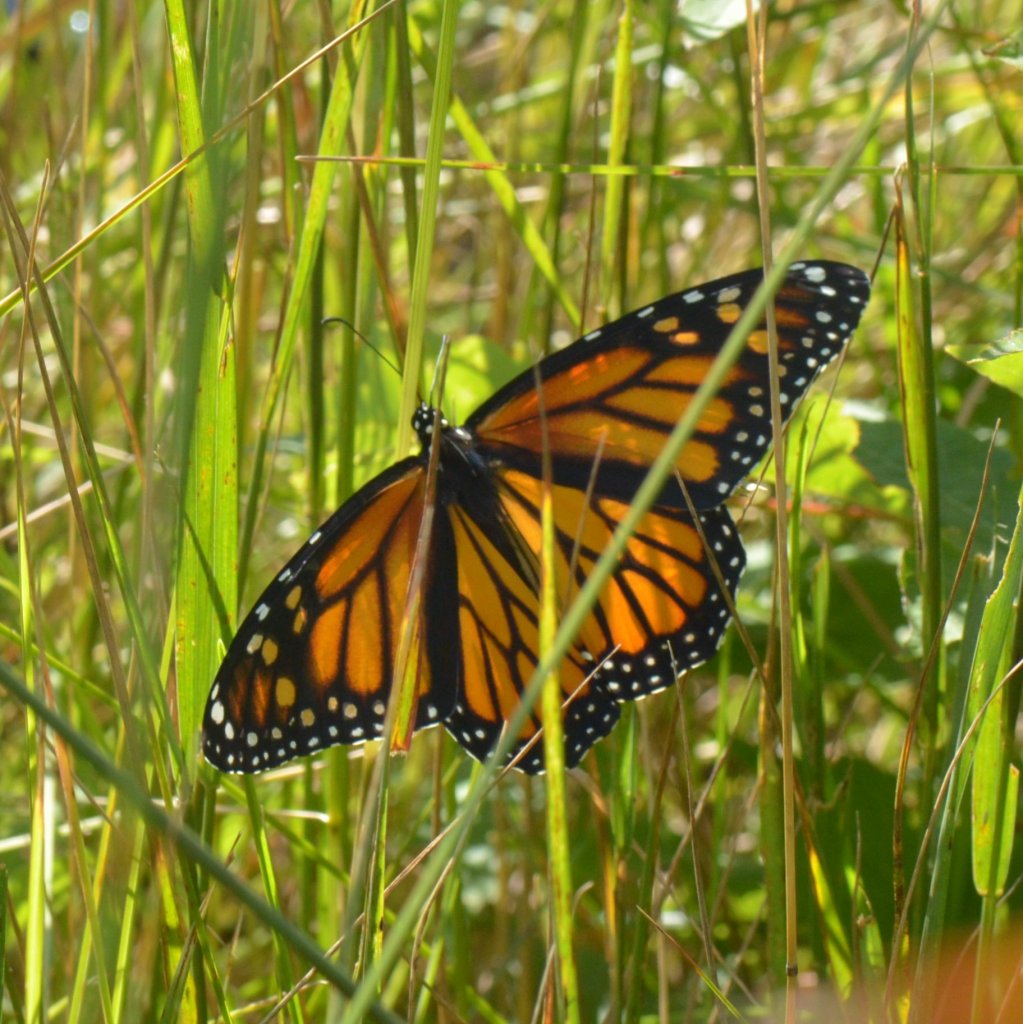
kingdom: Animalia
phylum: Arthropoda
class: Insecta
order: Lepidoptera
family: Nymphalidae
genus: Danaus
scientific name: Danaus plexippus
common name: Monarch
